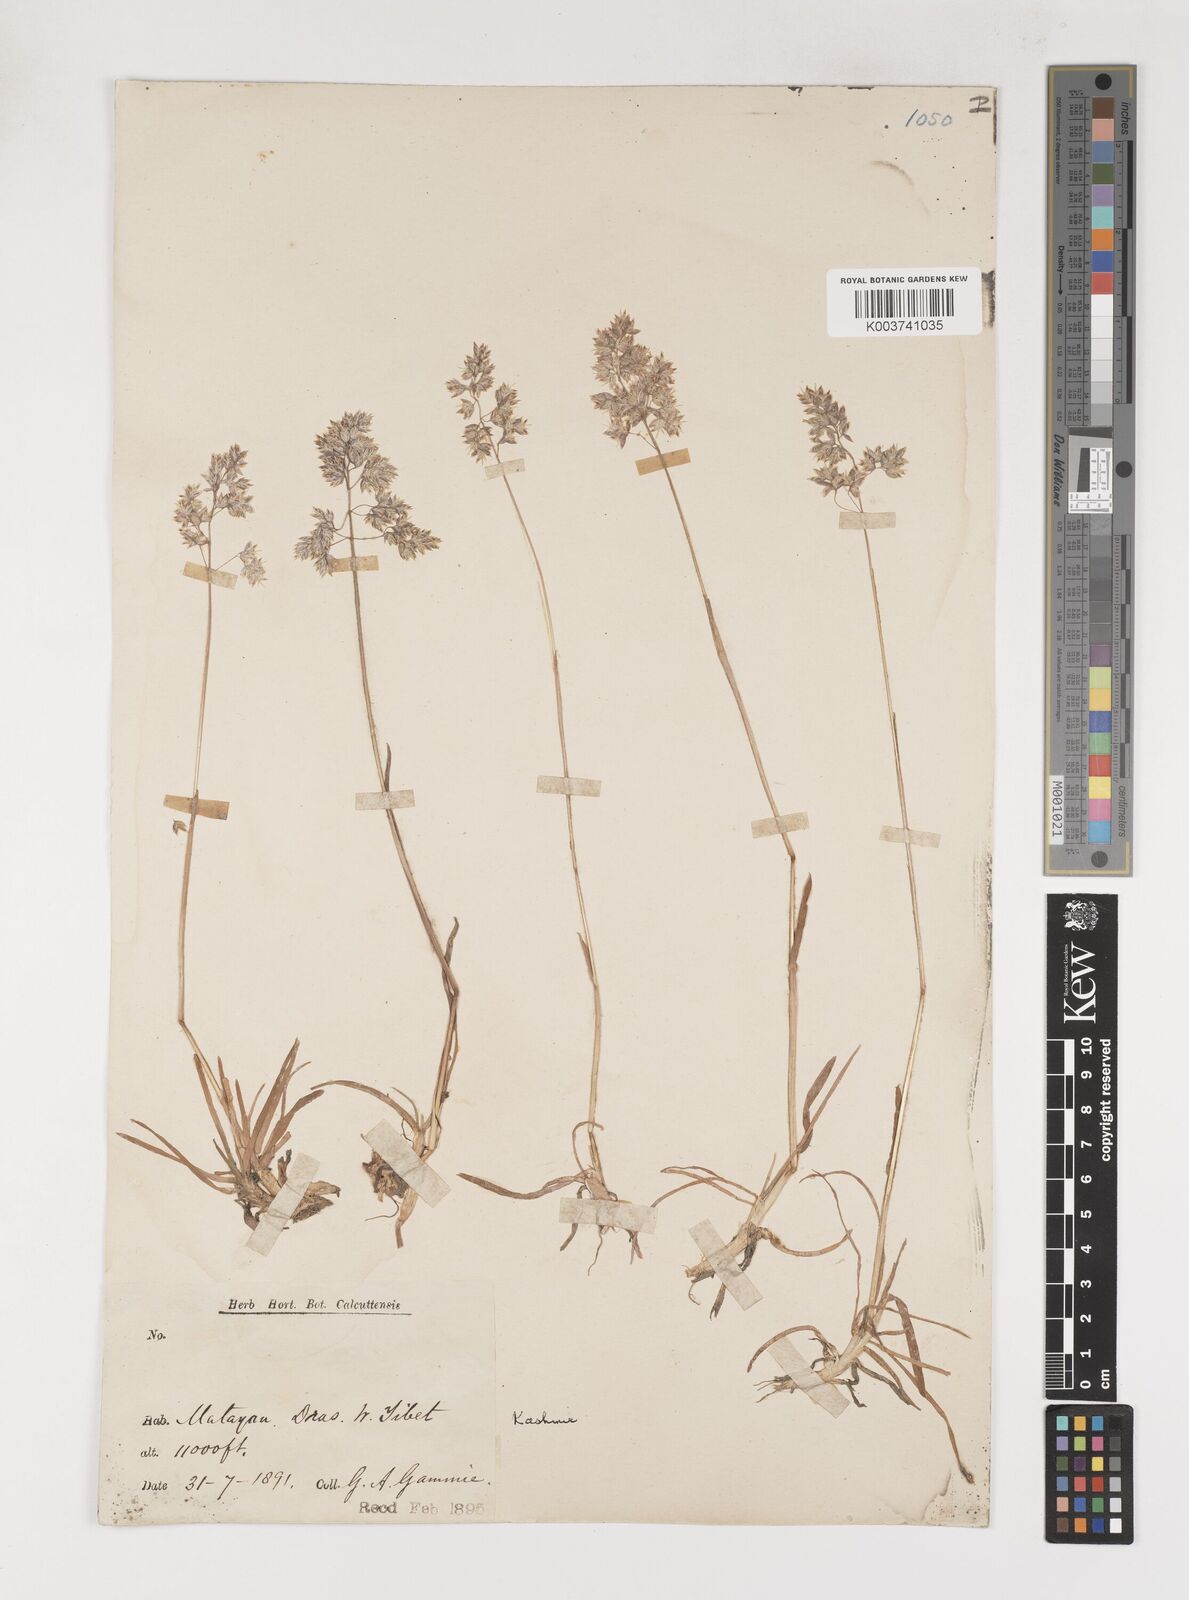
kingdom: Plantae
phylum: Tracheophyta
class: Liliopsida
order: Poales
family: Poaceae
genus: Poa
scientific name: Poa alpina
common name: Alpine bluegrass
